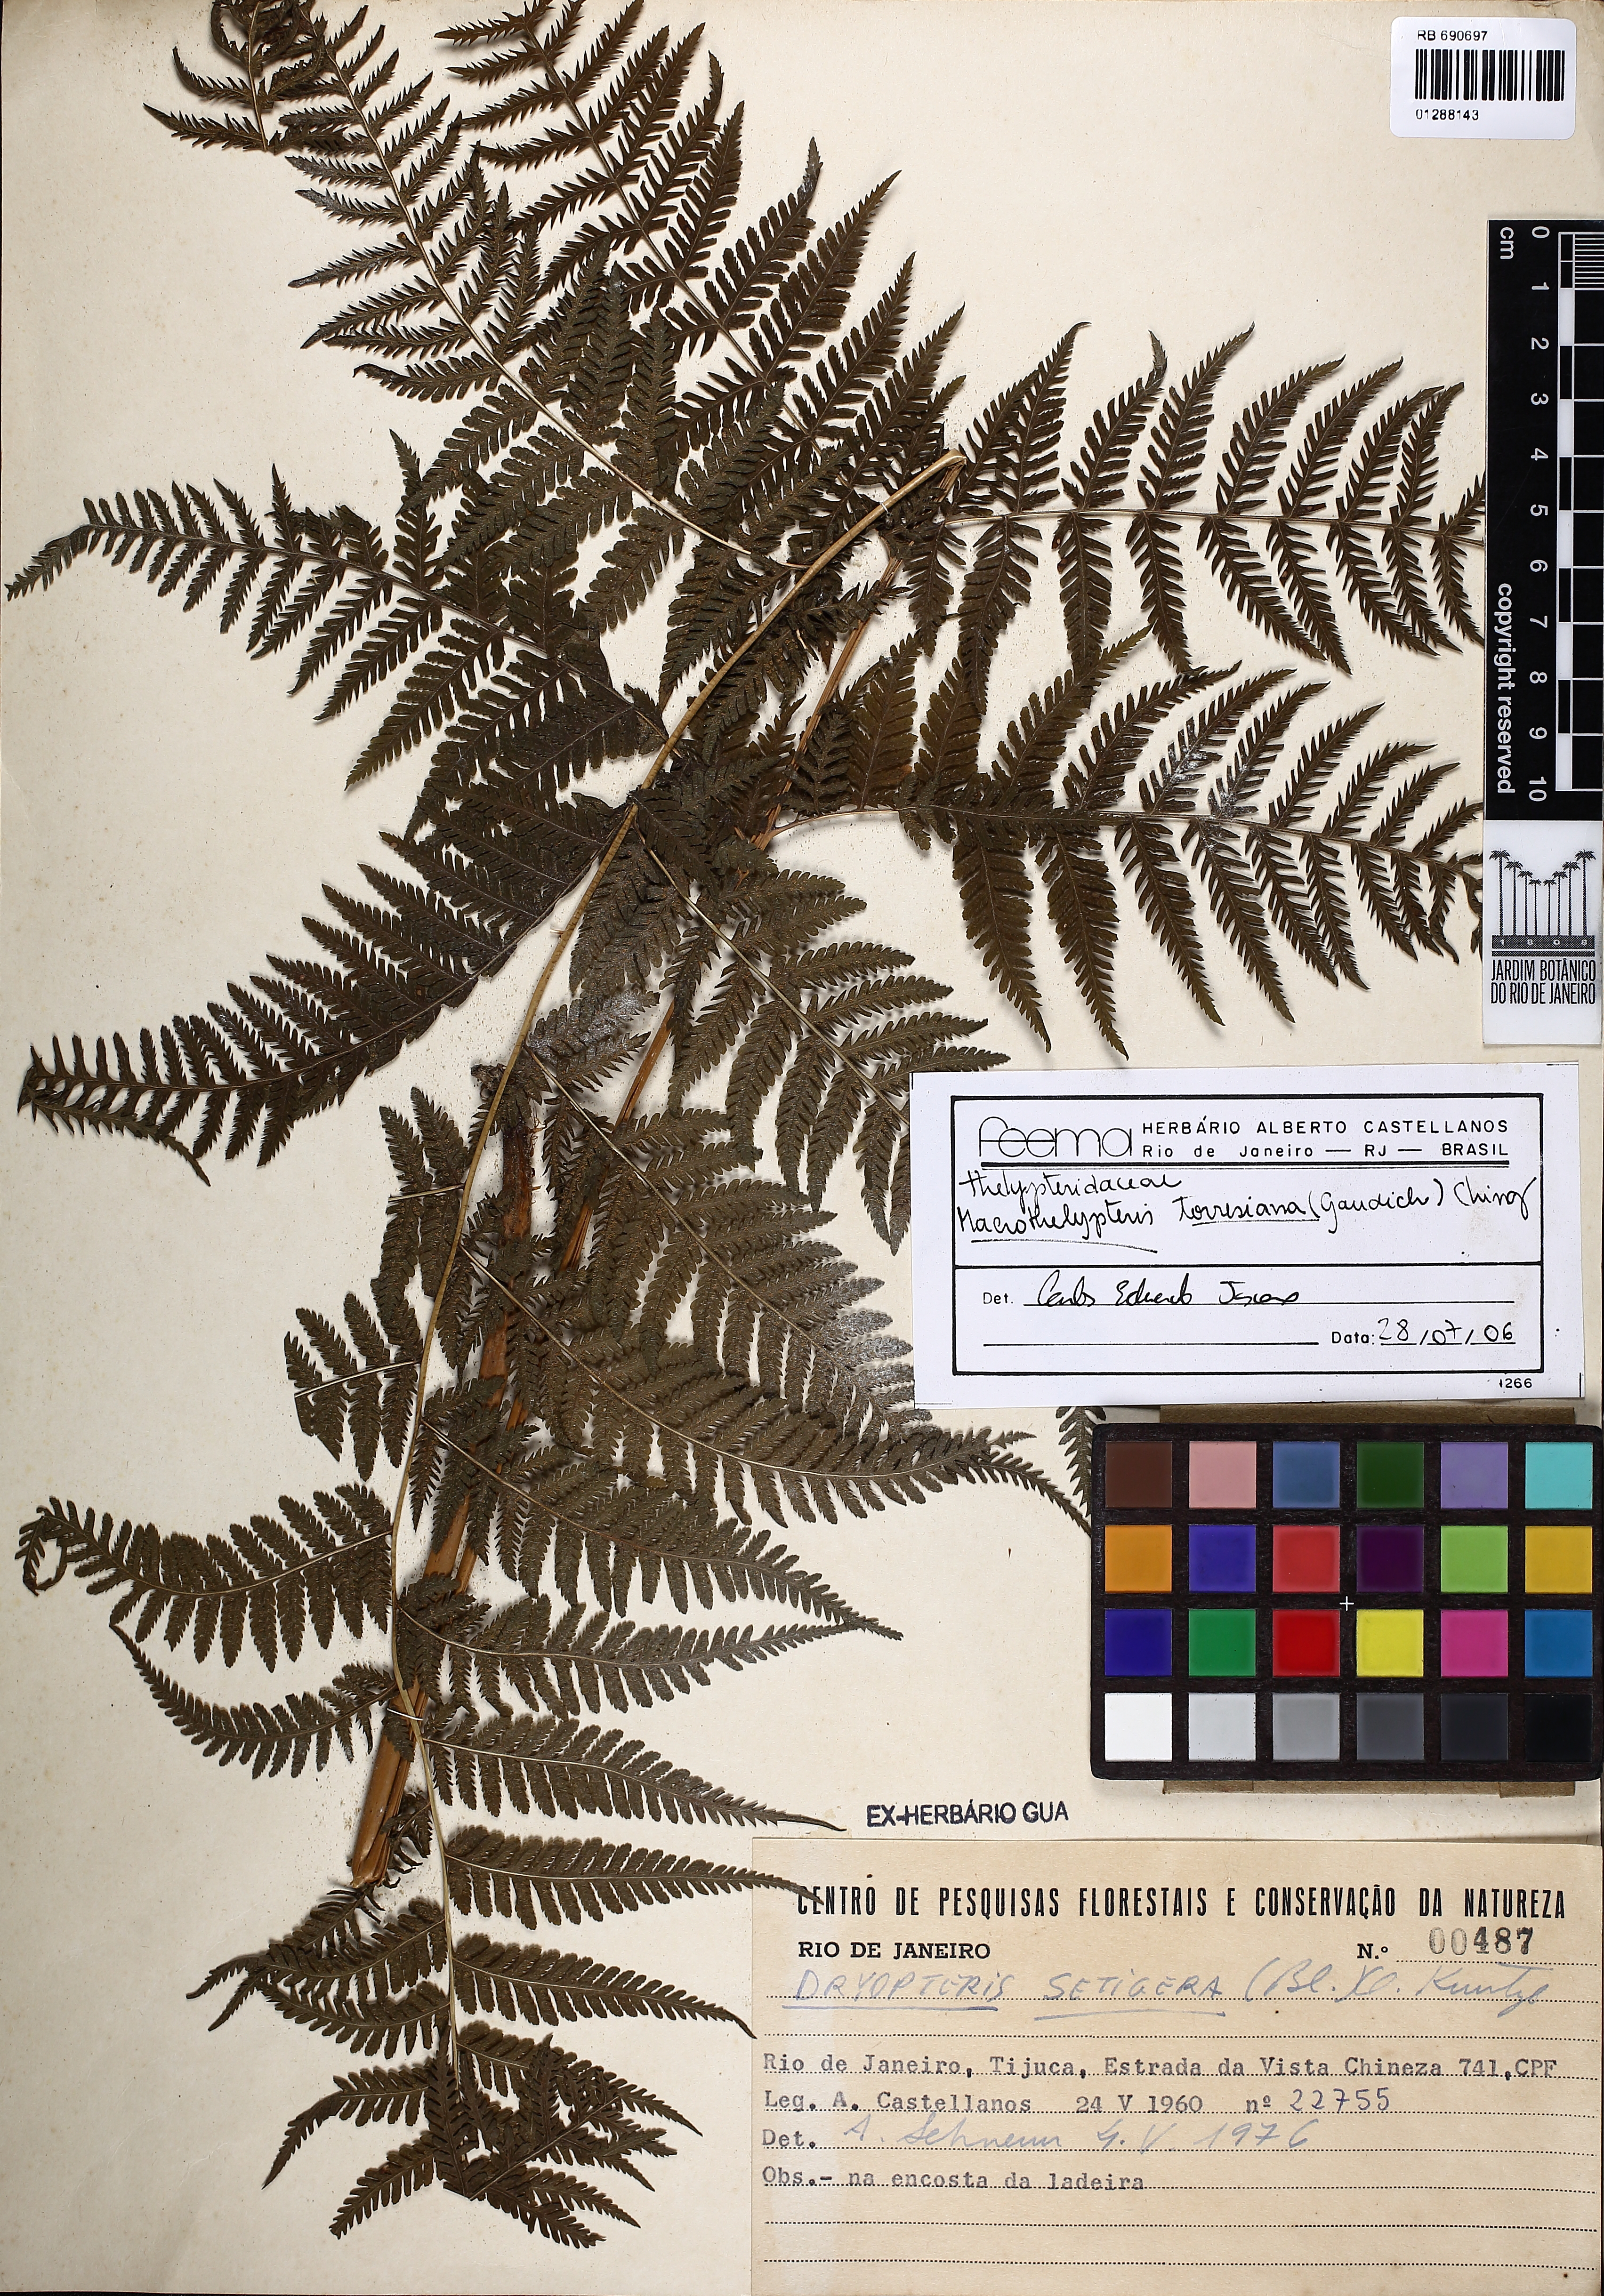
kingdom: Plantae
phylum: Tracheophyta
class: Polypodiopsida
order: Polypodiales
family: Thelypteridaceae
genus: Macrothelypteris
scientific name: Macrothelypteris torresiana
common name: Swordfern
